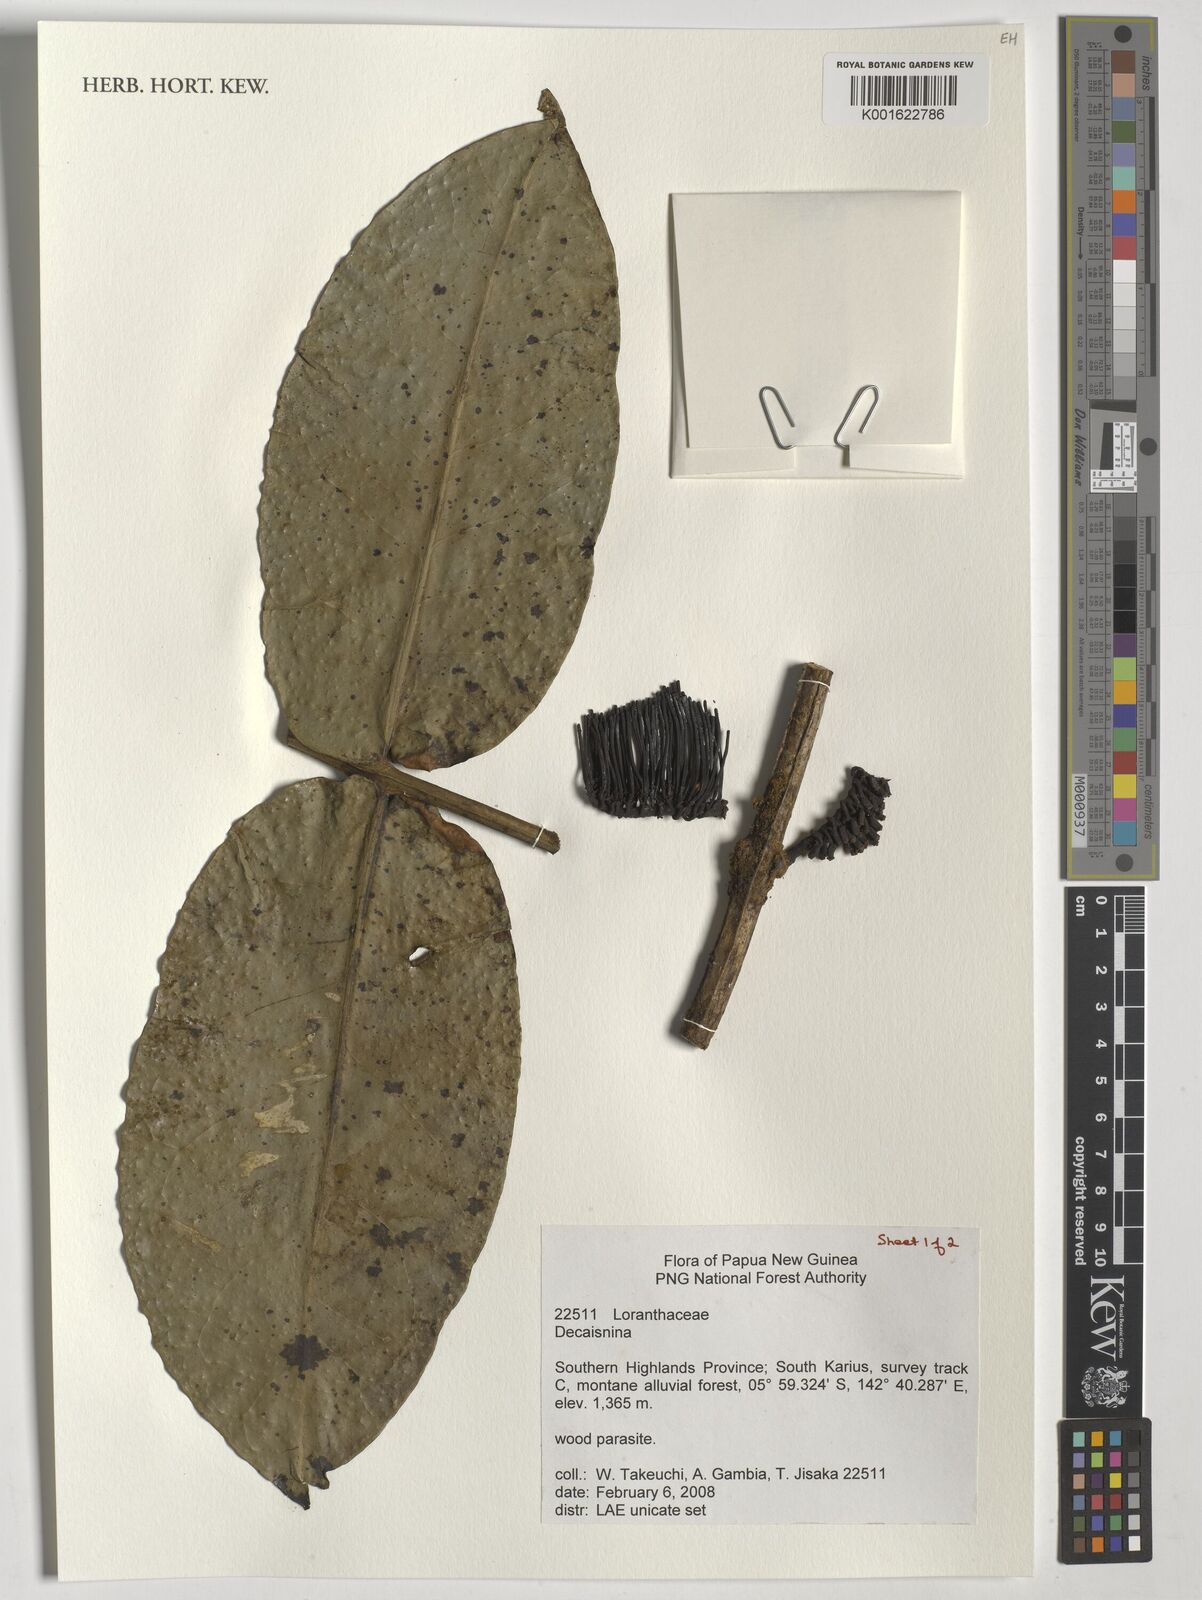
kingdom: Plantae
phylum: Tracheophyta
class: Magnoliopsida
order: Santalales
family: Loranthaceae
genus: Decaisnina
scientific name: Decaisnina
